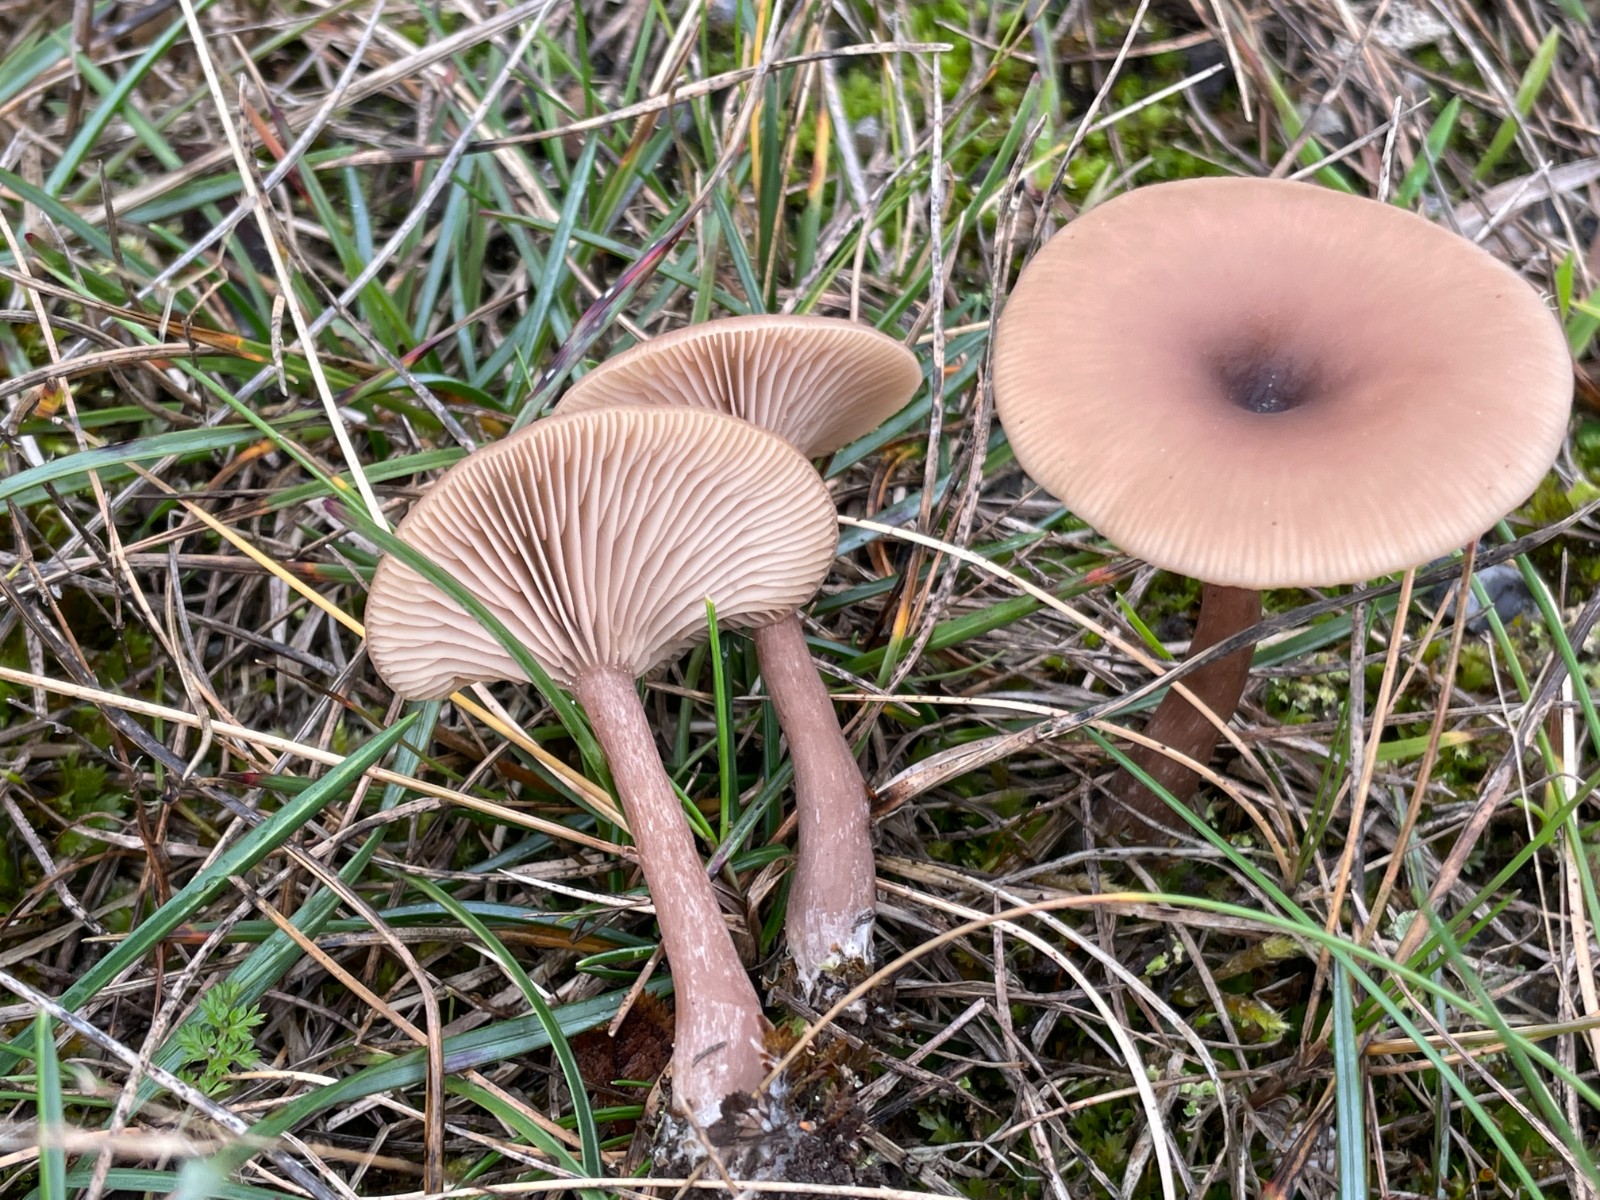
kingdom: Fungi
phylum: Basidiomycota
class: Agaricomycetes
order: Agaricales
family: Pseudoclitocybaceae
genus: Pseudoclitocybe
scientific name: Pseudoclitocybe expallens
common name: lille bægertragthat
